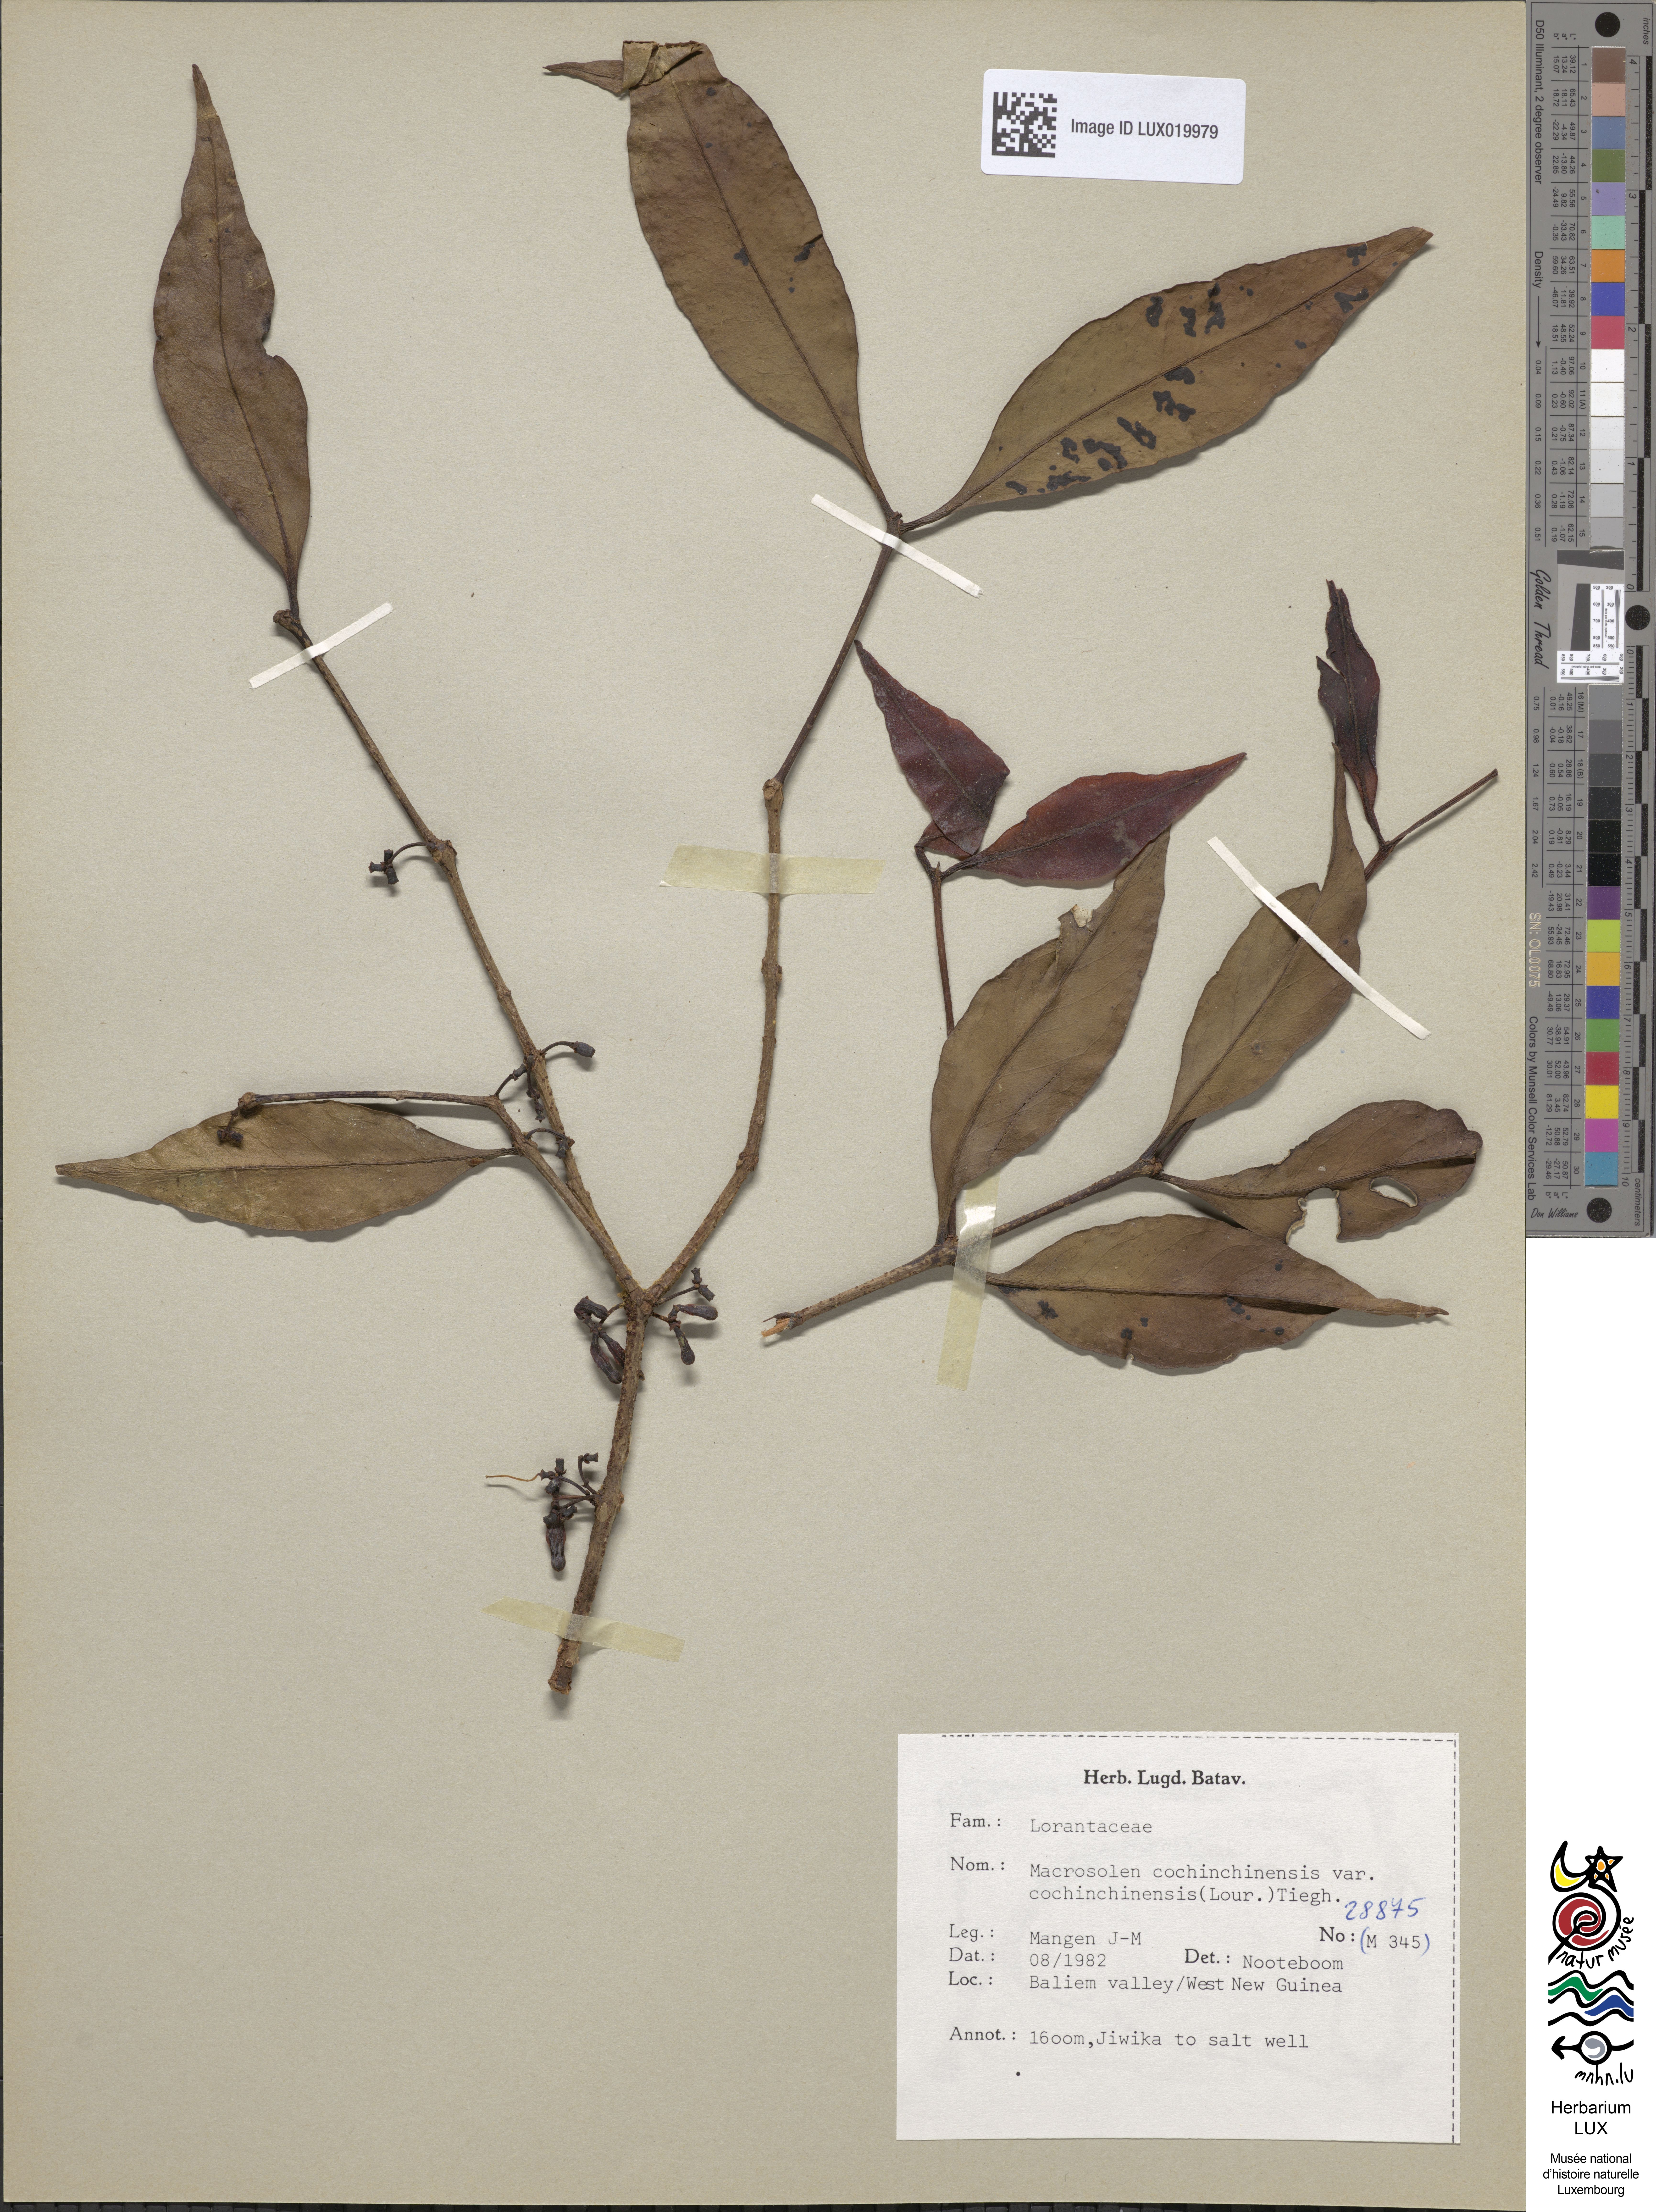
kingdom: Plantae
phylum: Tracheophyta
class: Magnoliopsida
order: Santalales
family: Loranthaceae
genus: Macrosolen
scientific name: Macrosolen cochinchinensis
